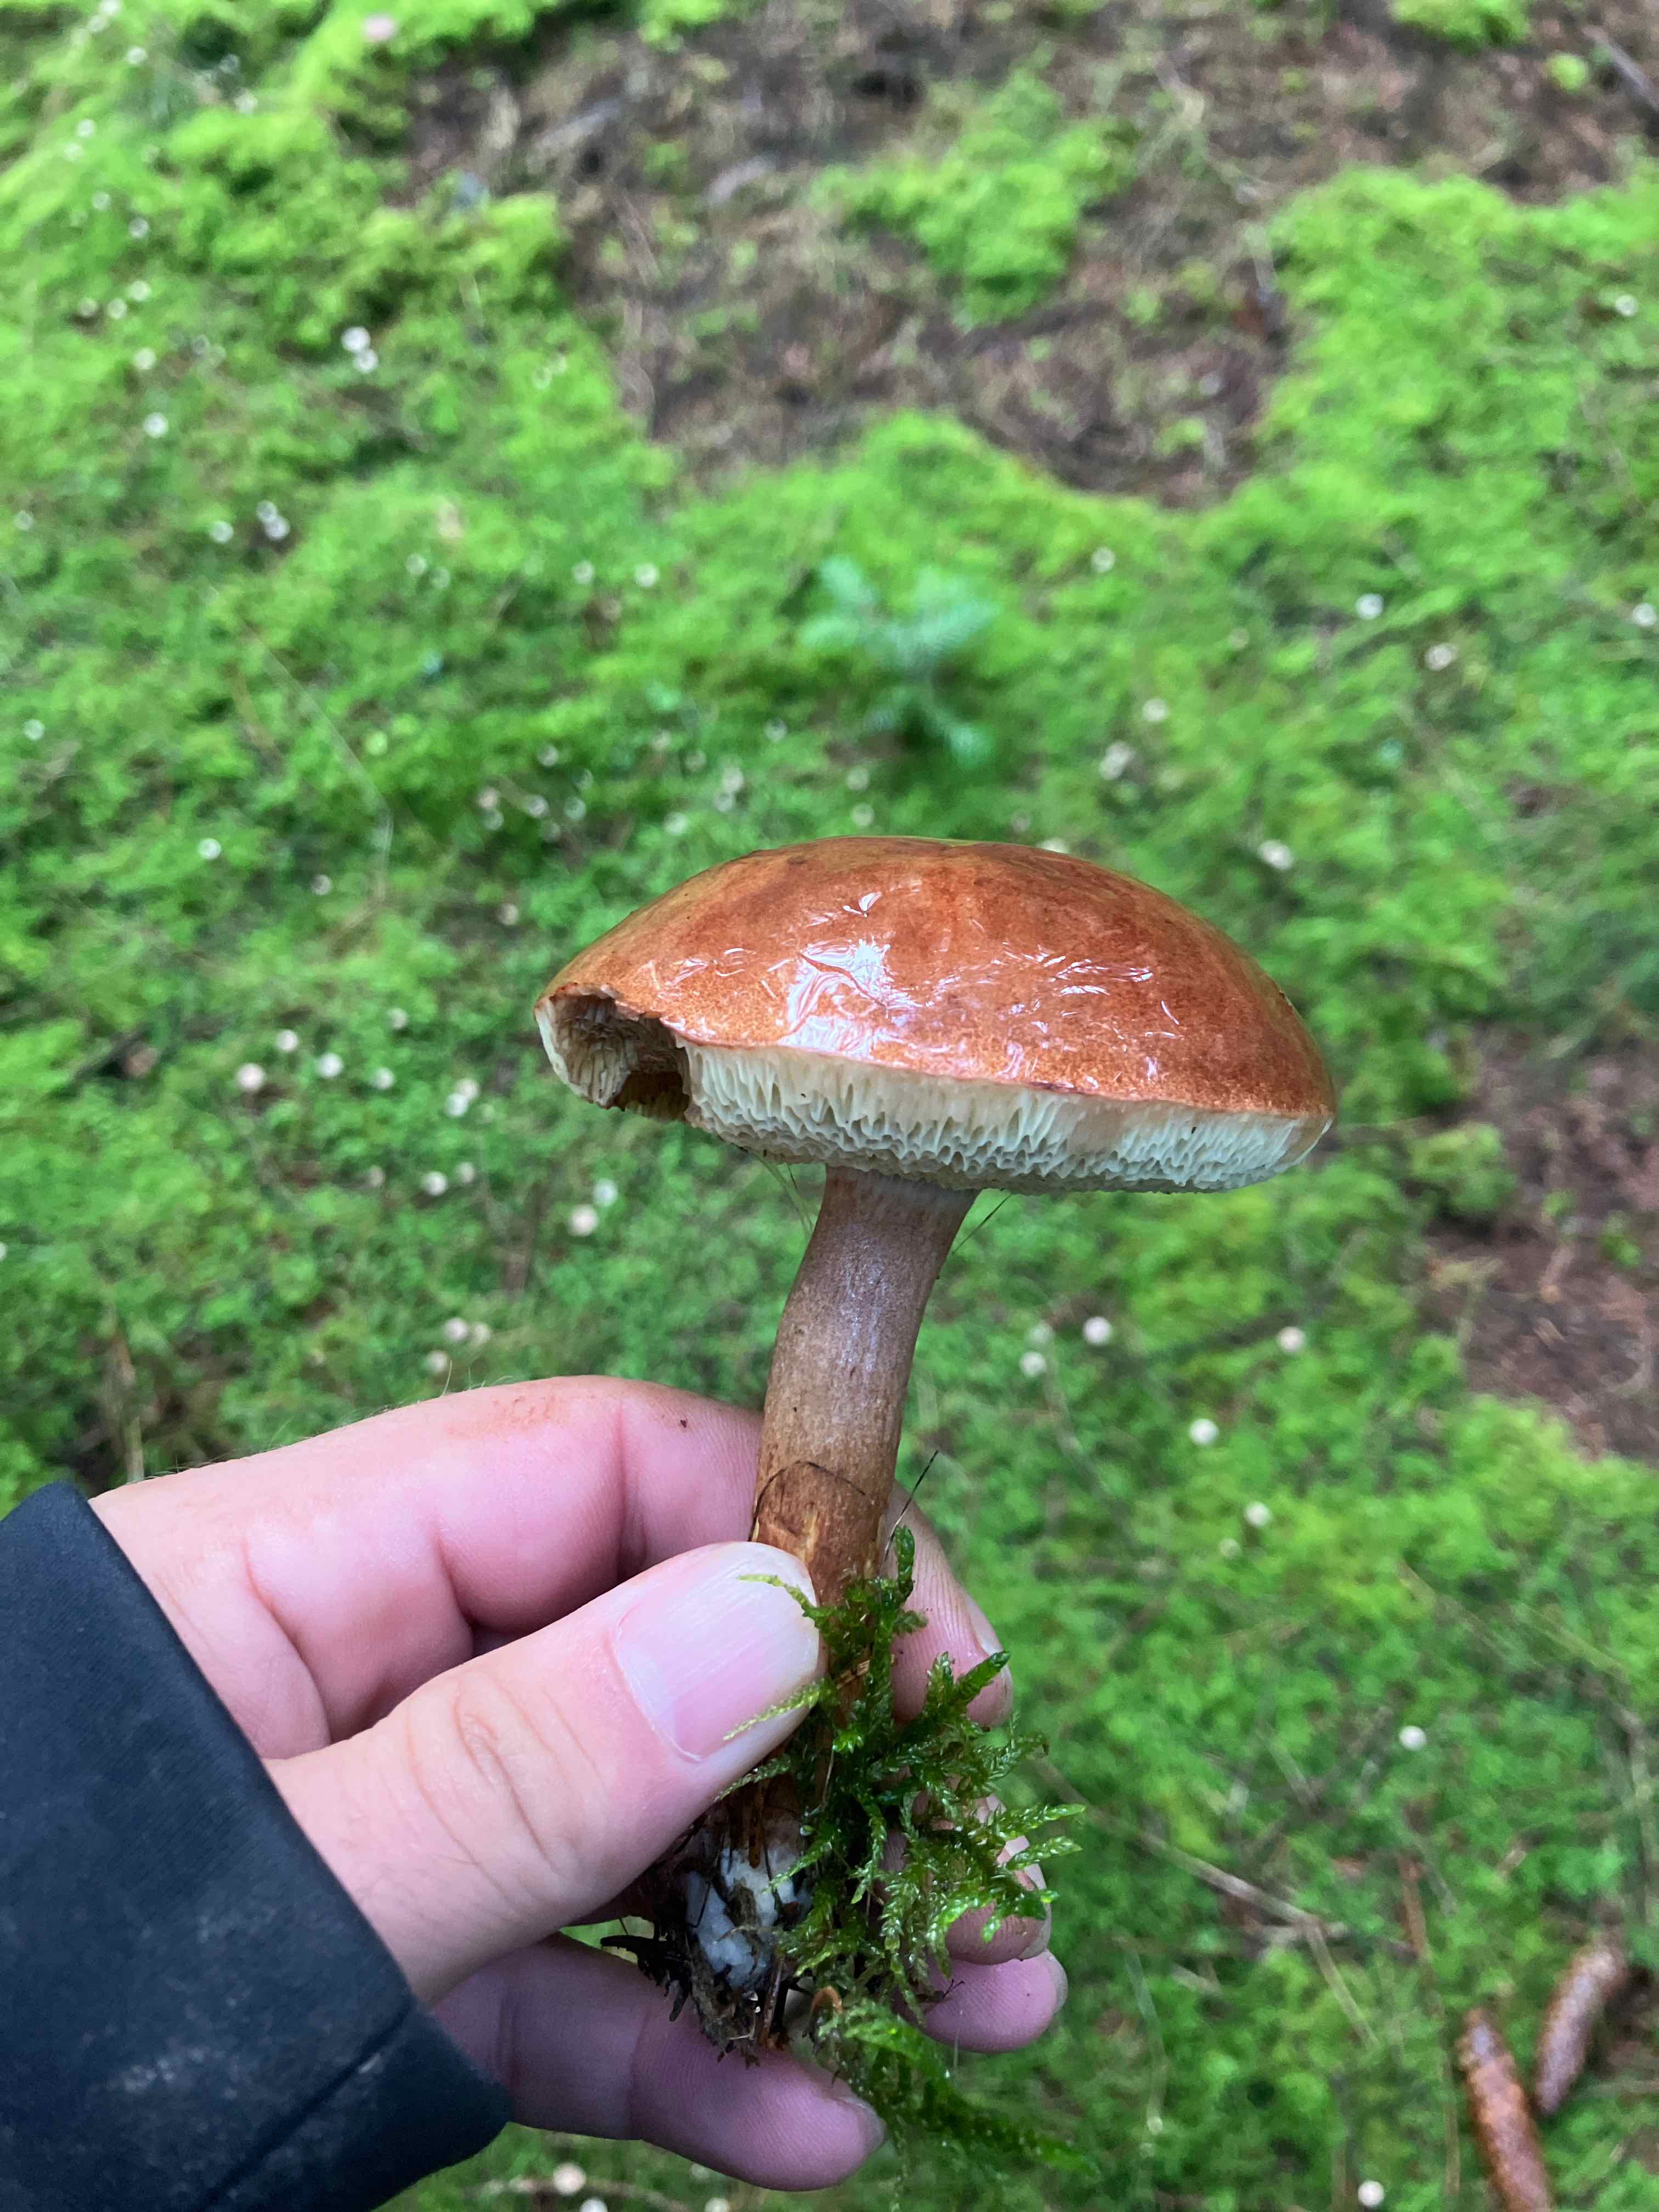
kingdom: Fungi
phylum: Basidiomycota
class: Agaricomycetes
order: Boletales
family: Boletaceae
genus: Imleria
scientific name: Imleria badia
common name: brunstokket rørhat
